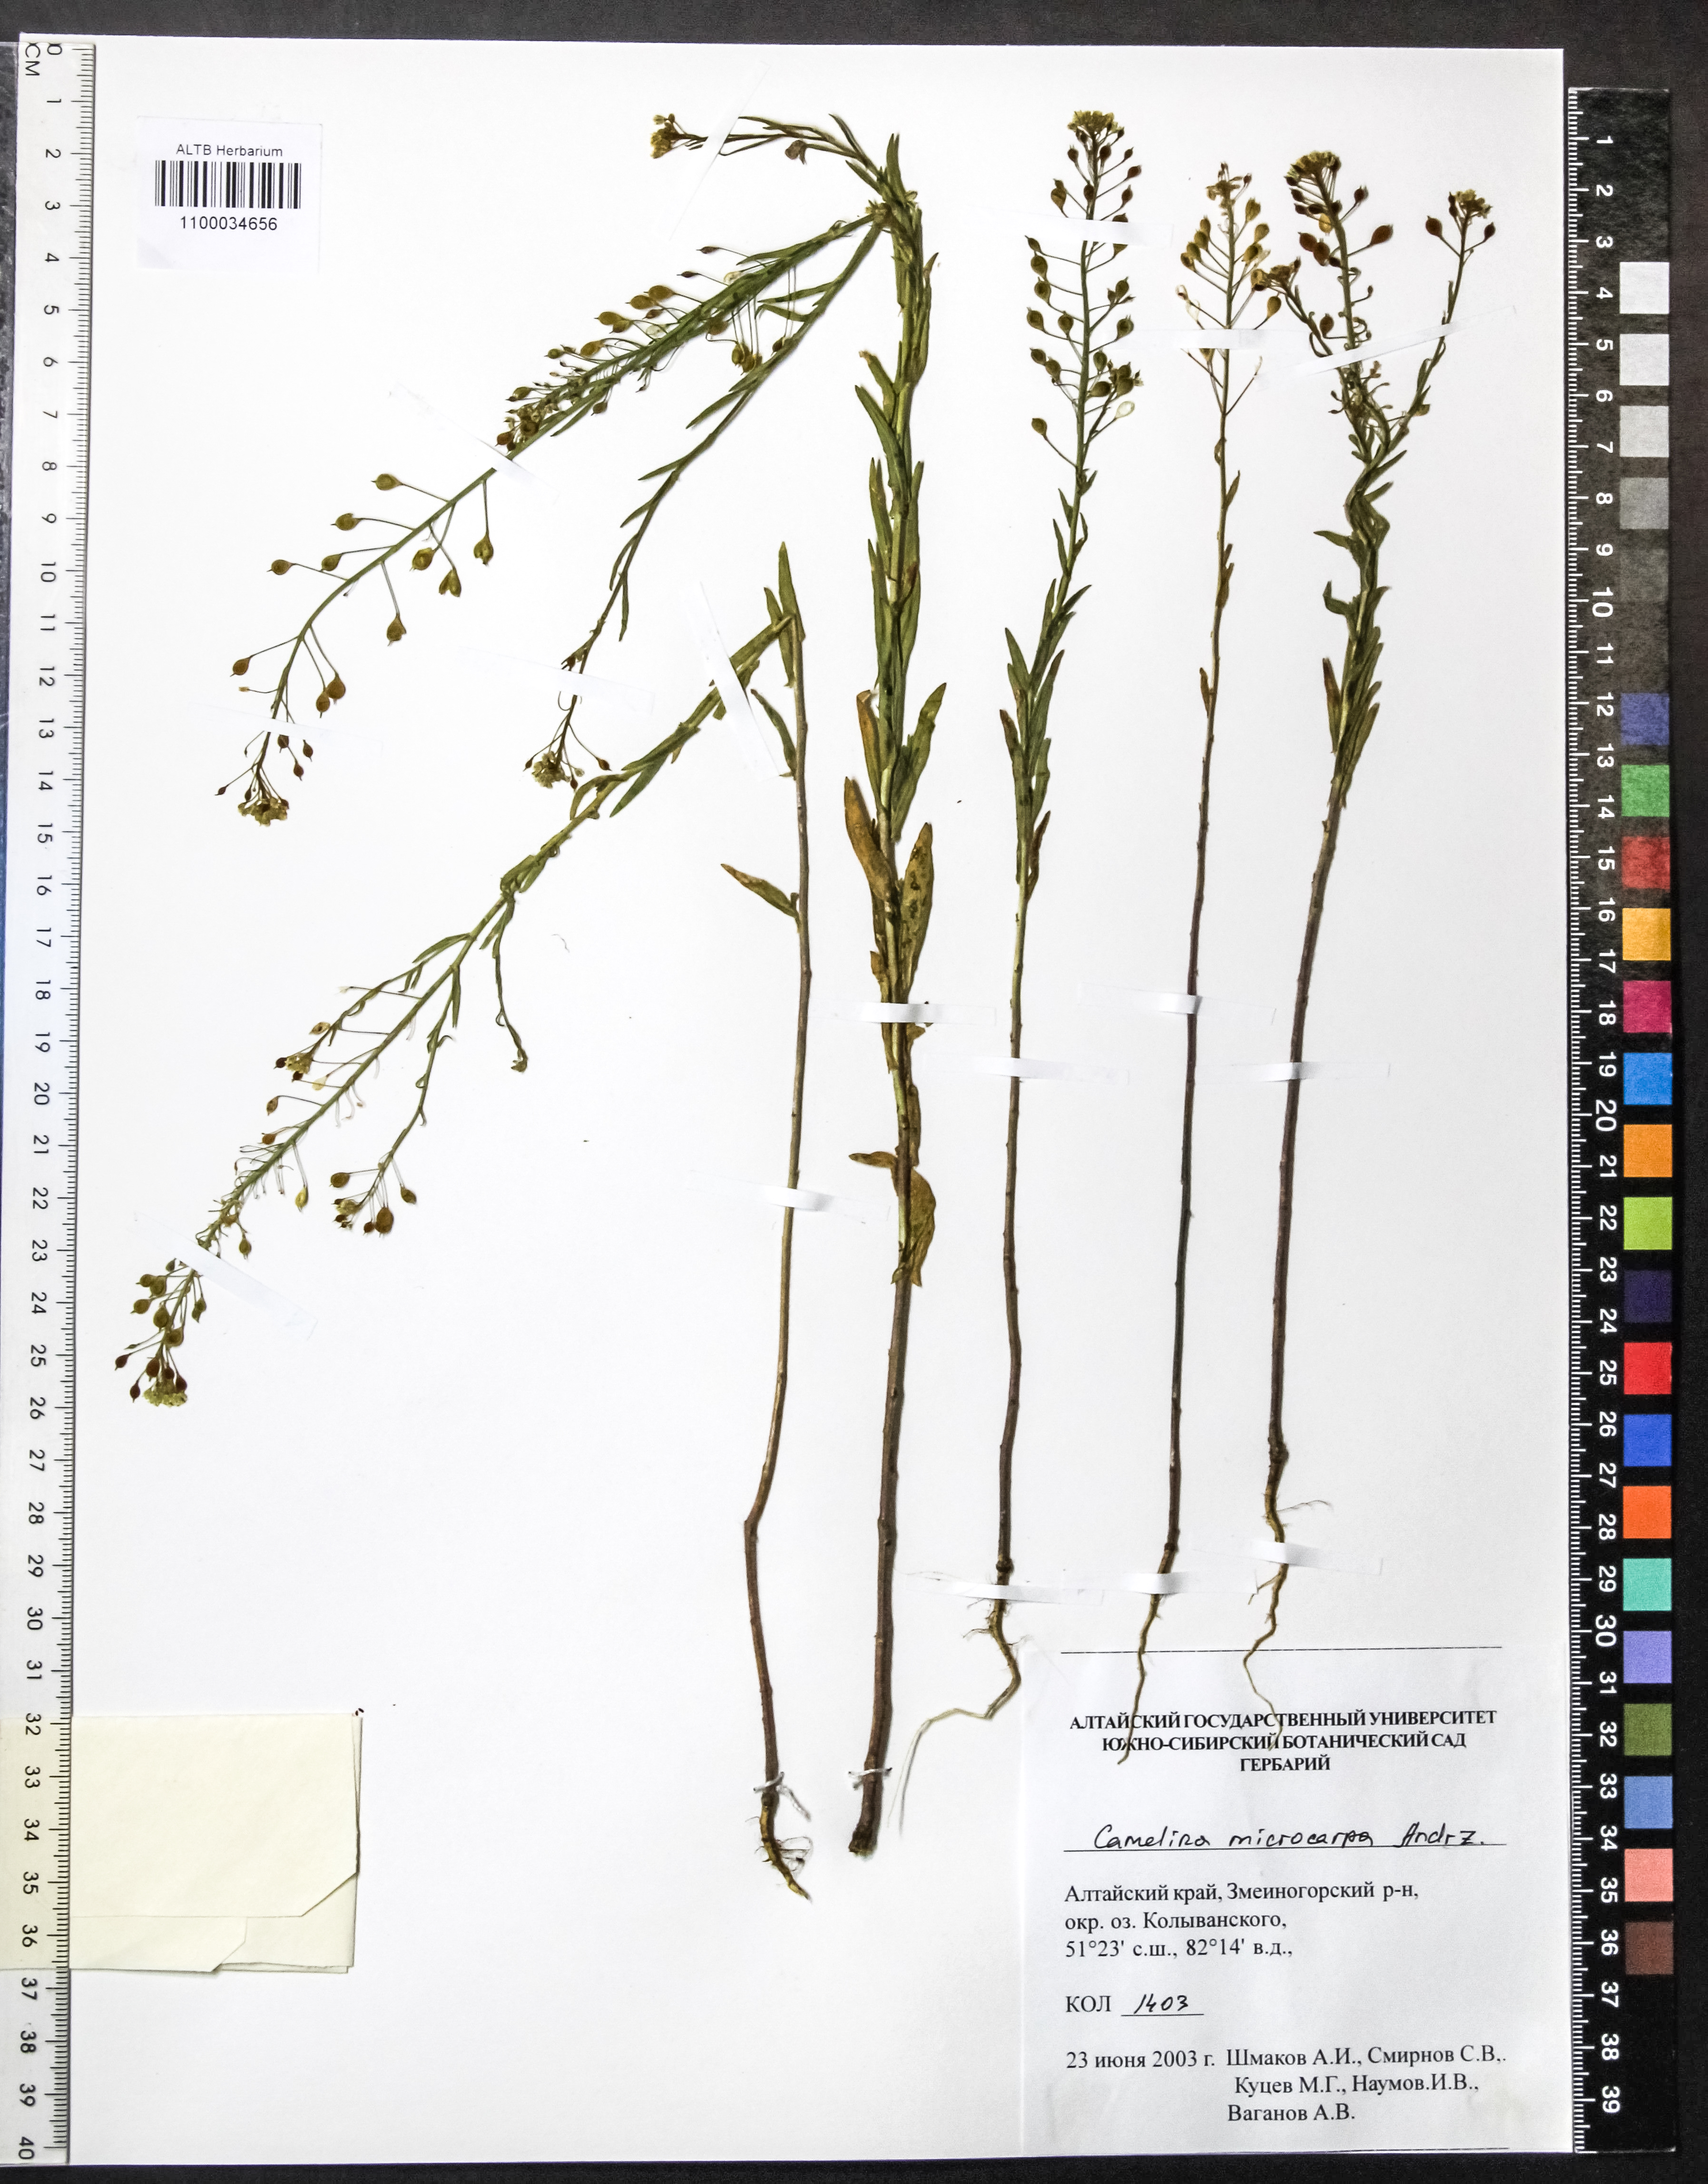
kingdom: Plantae
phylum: Tracheophyta
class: Magnoliopsida
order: Brassicales
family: Brassicaceae
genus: Camelina
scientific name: Camelina microcarpa
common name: Lesser gold-of-pleasure
